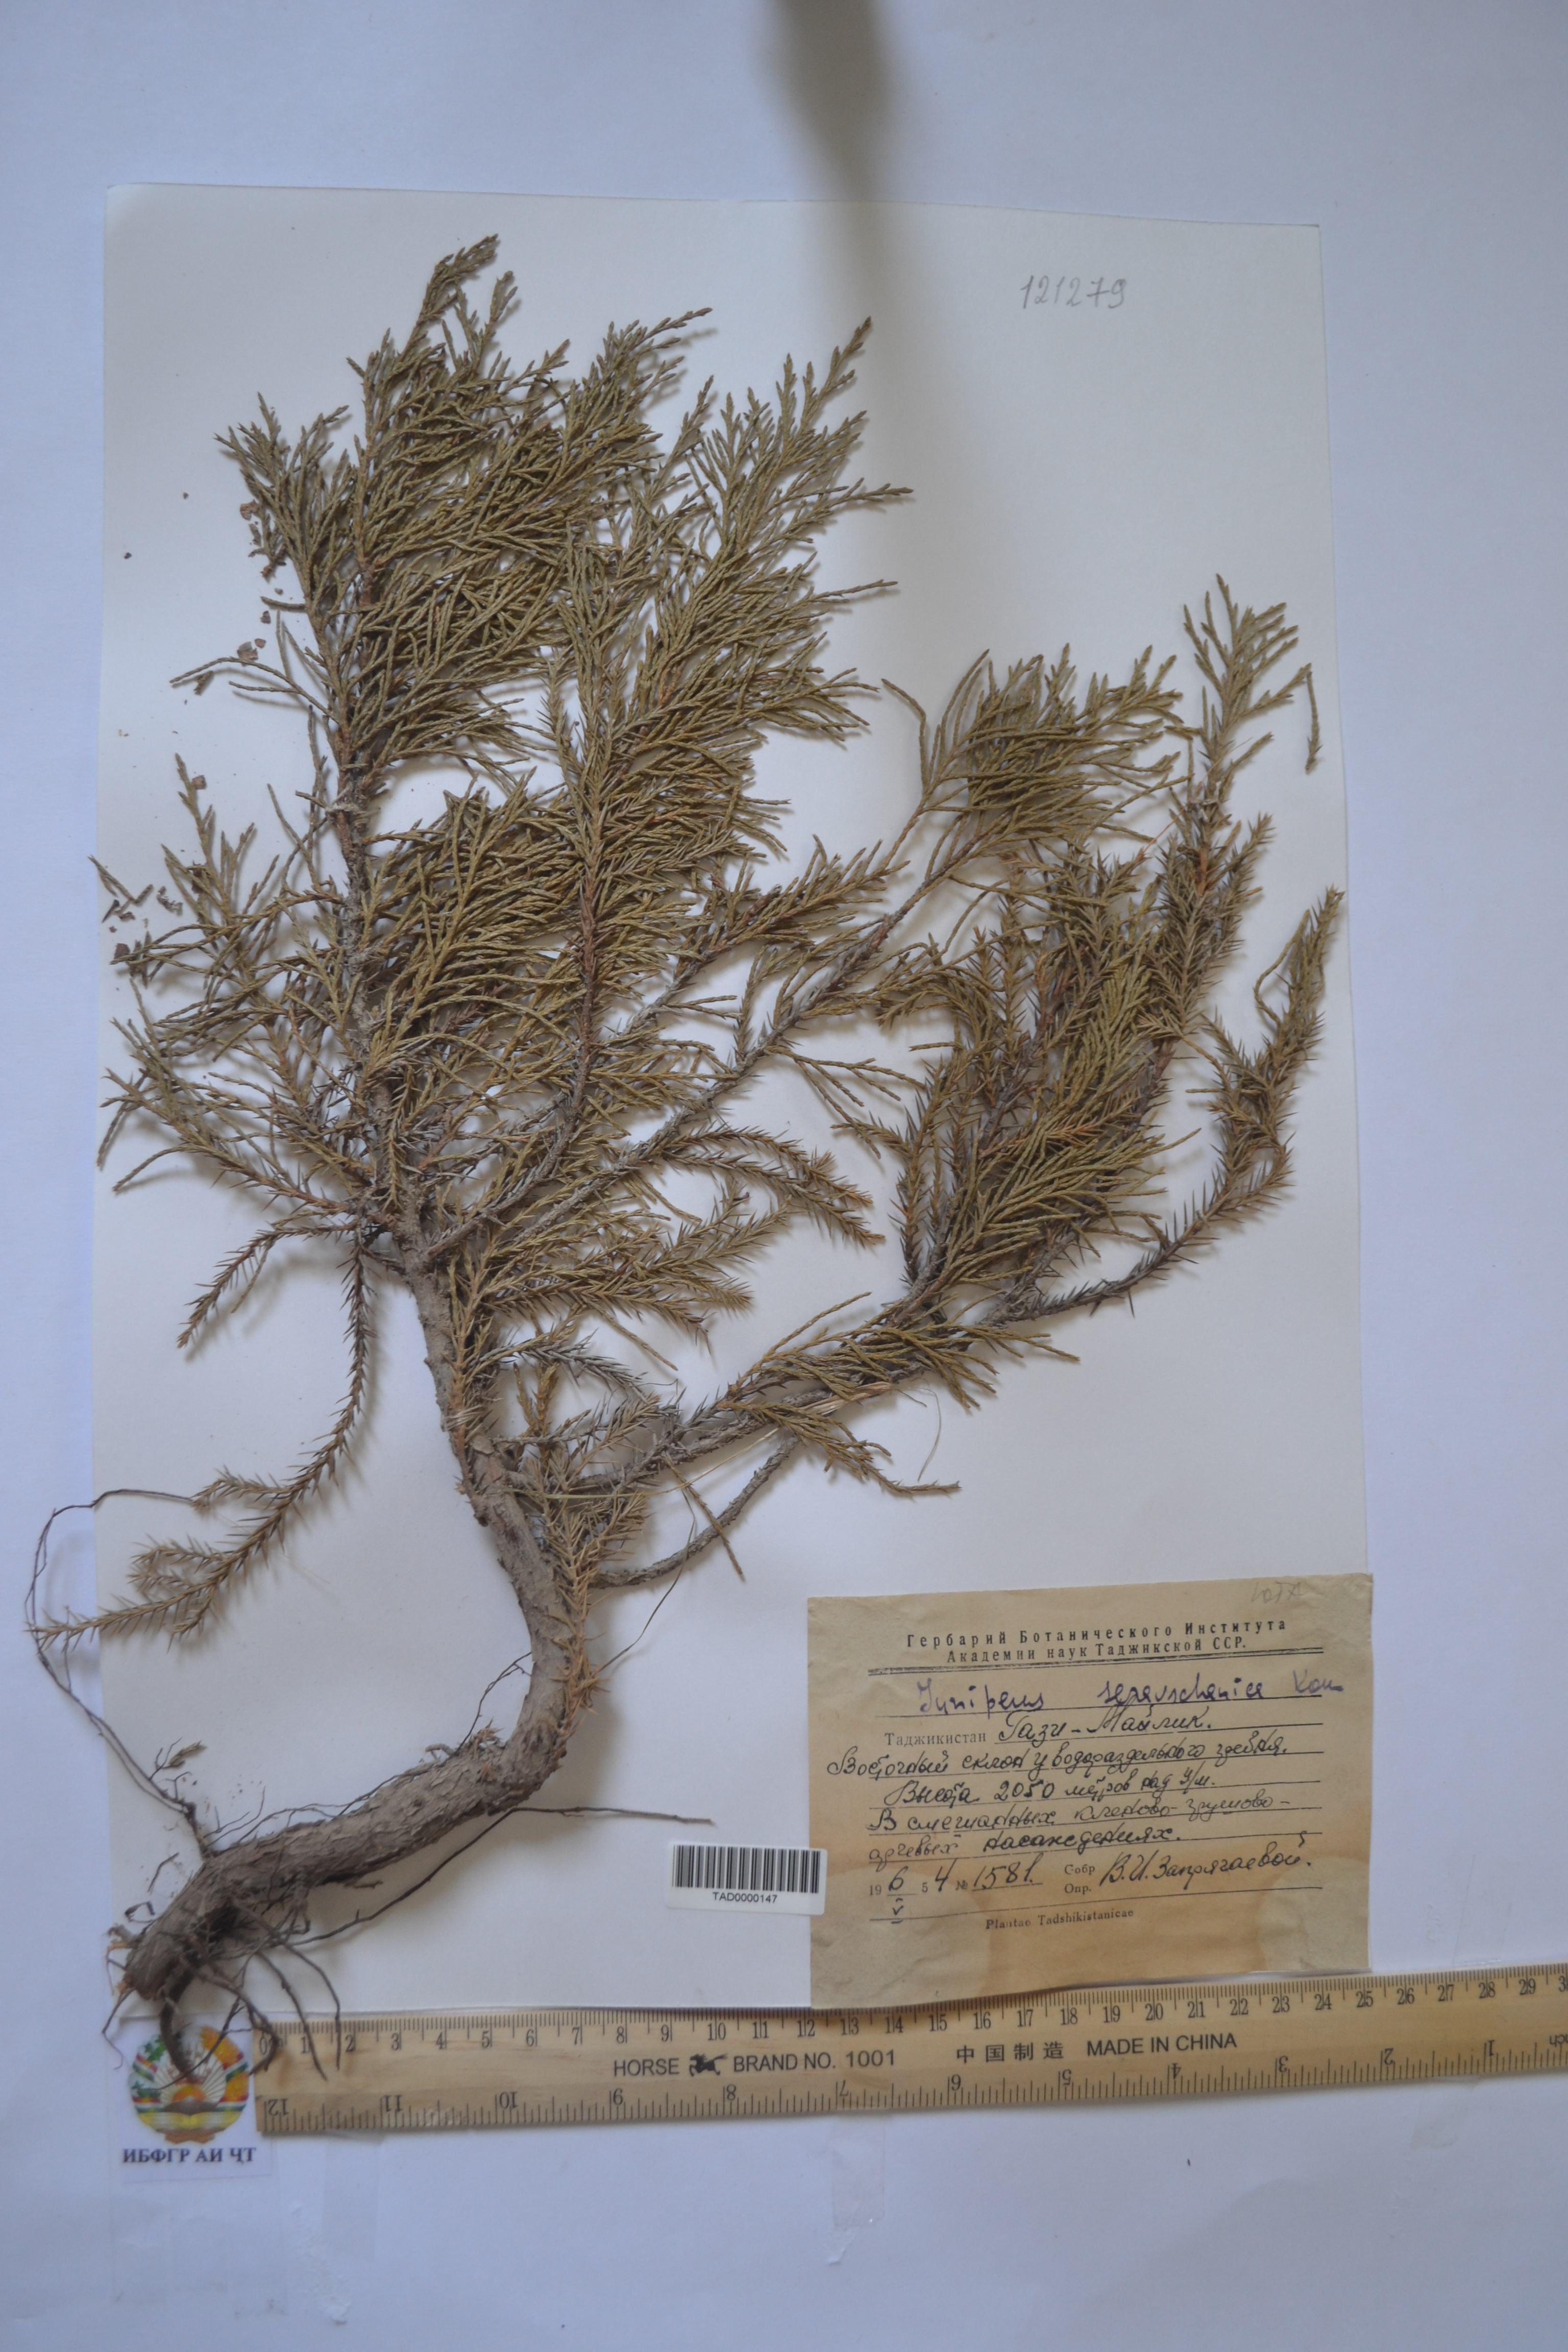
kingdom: Plantae
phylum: Tracheophyta
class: Pinopsida
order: Pinales
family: Cupressaceae
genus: Juniperus
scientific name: Juniperus excelsa
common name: Crimean juniper
